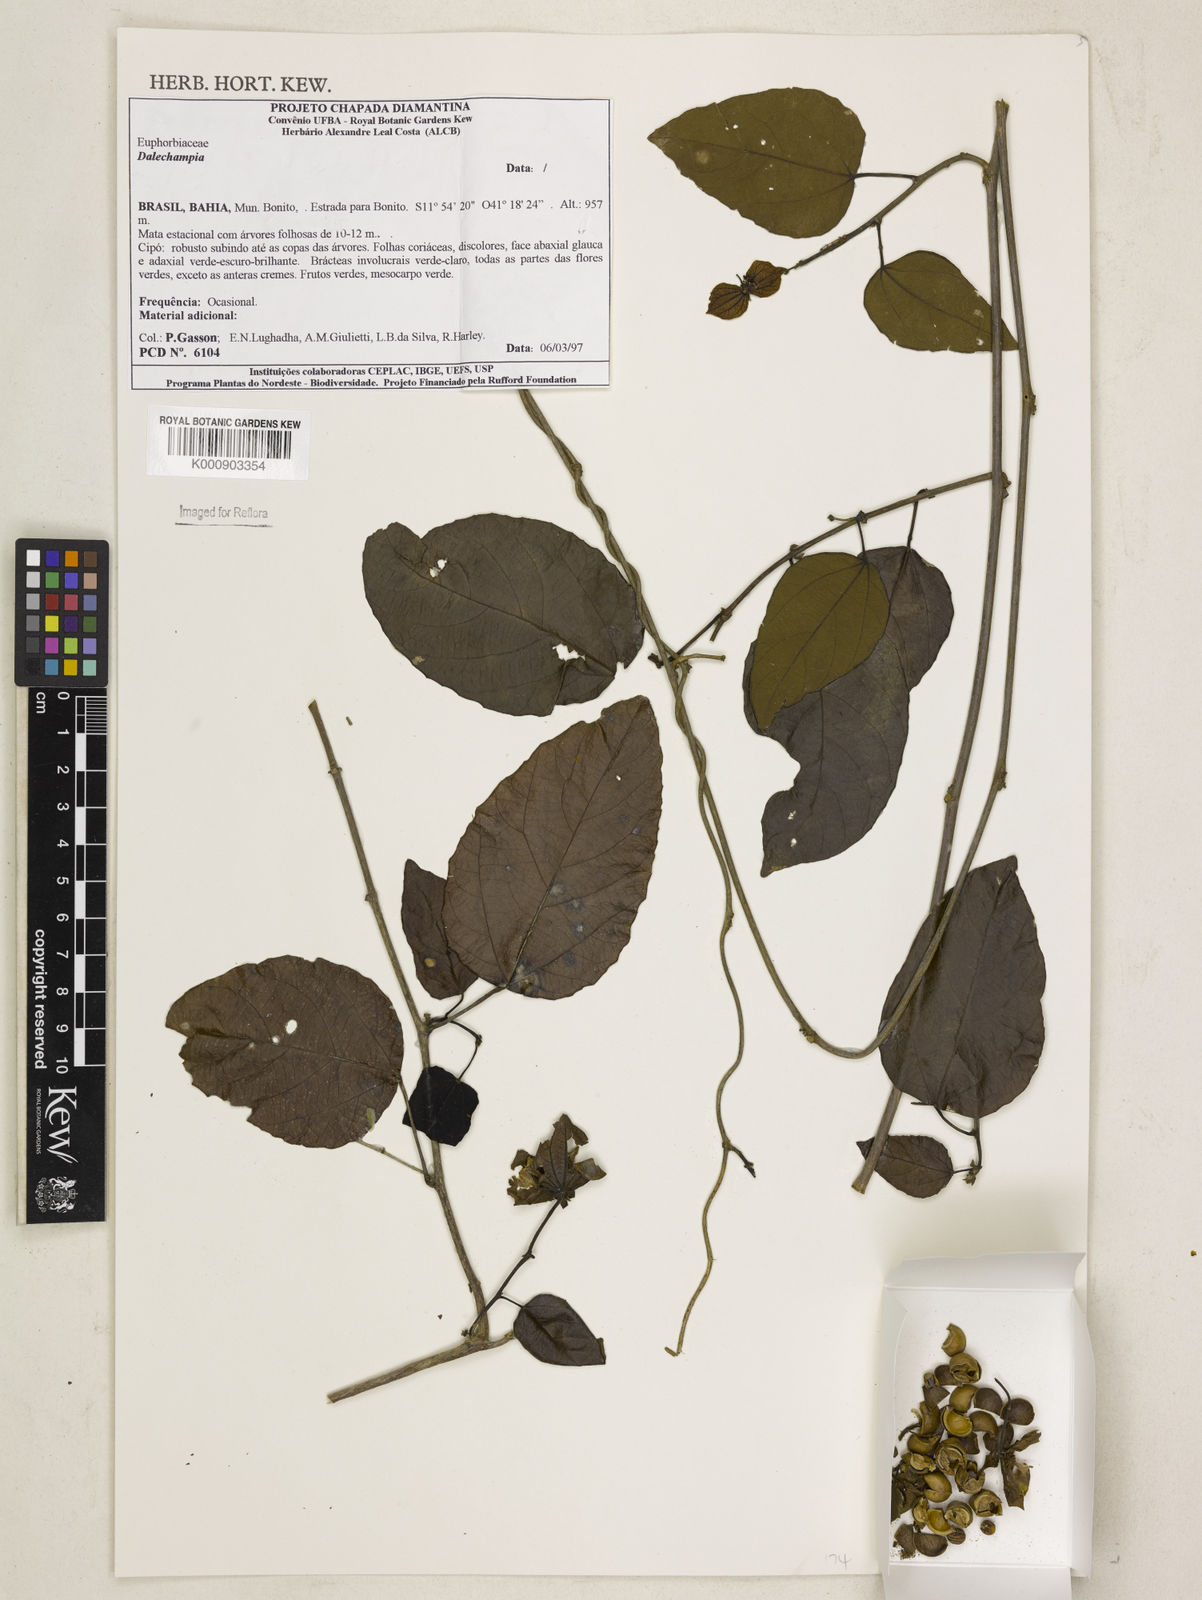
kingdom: Plantae
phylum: Tracheophyta
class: Magnoliopsida
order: Malpighiales
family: Euphorbiaceae
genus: Dalechampia
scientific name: Dalechampia
